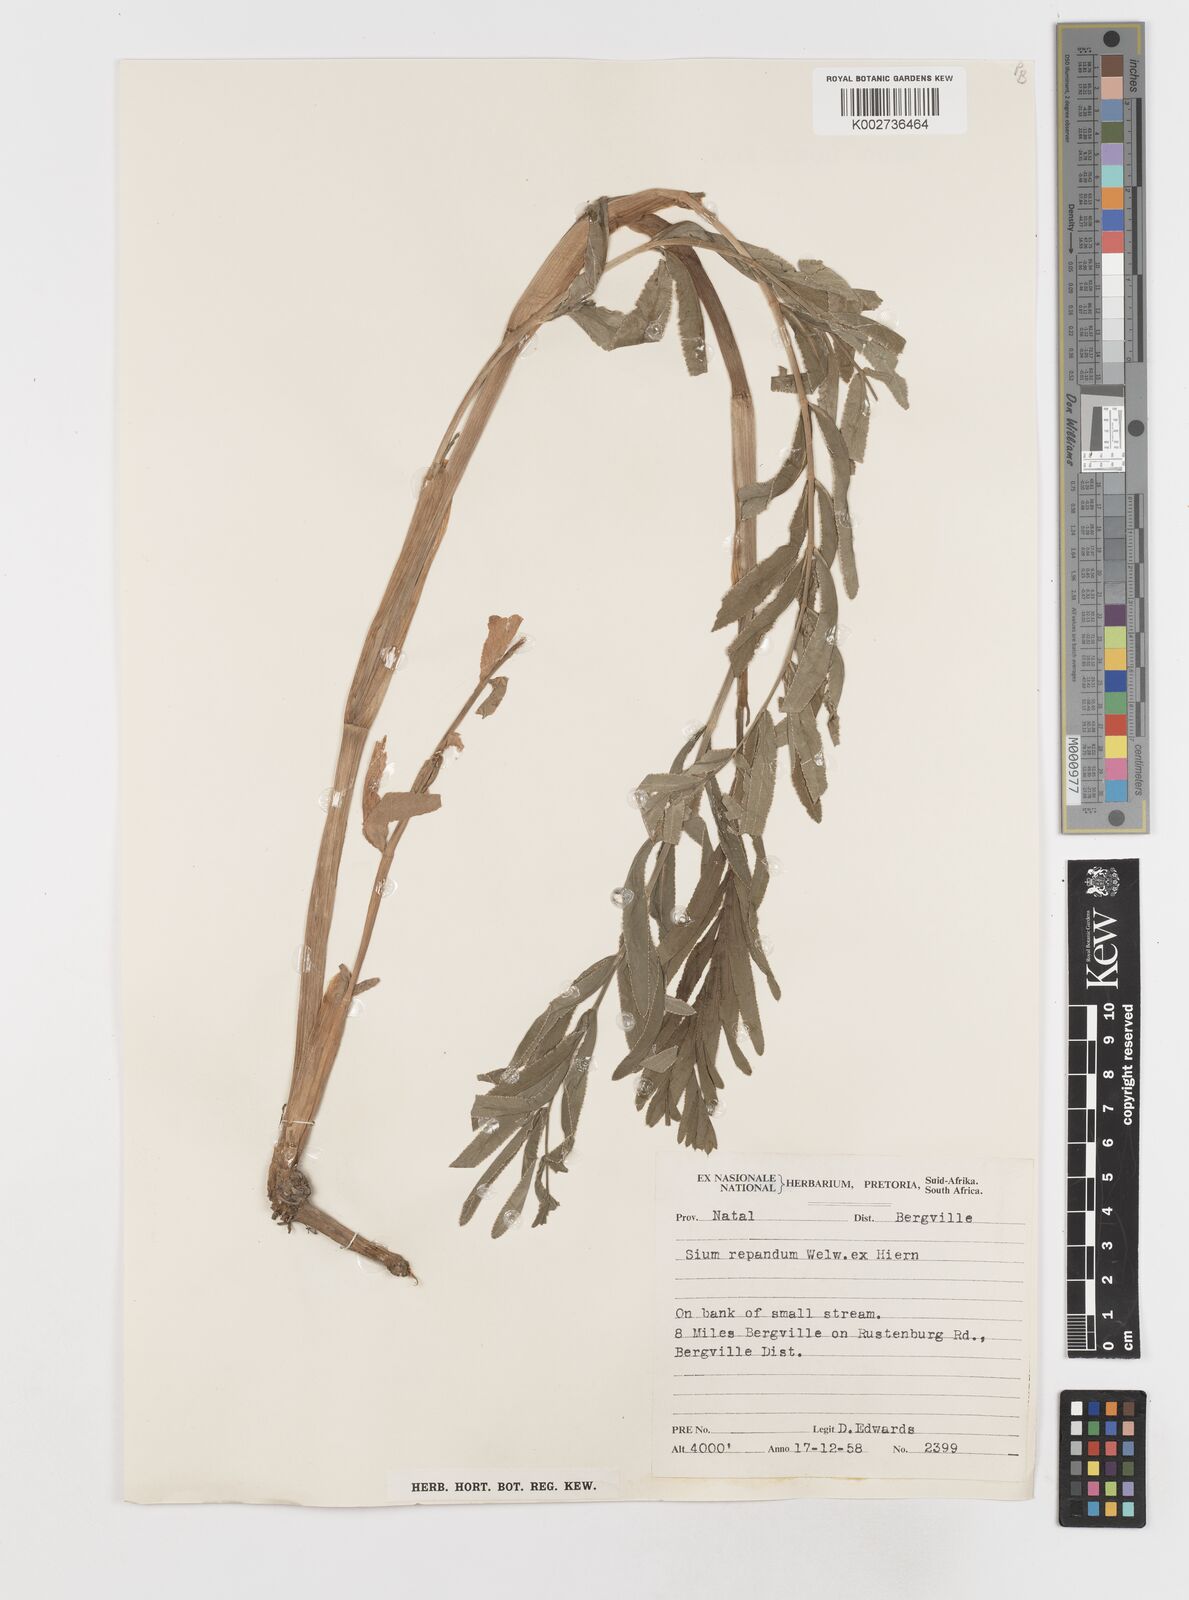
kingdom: Plantae
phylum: Tracheophyta
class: Magnoliopsida
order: Apiales
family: Apiaceae
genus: Berula
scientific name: Berula repanda
